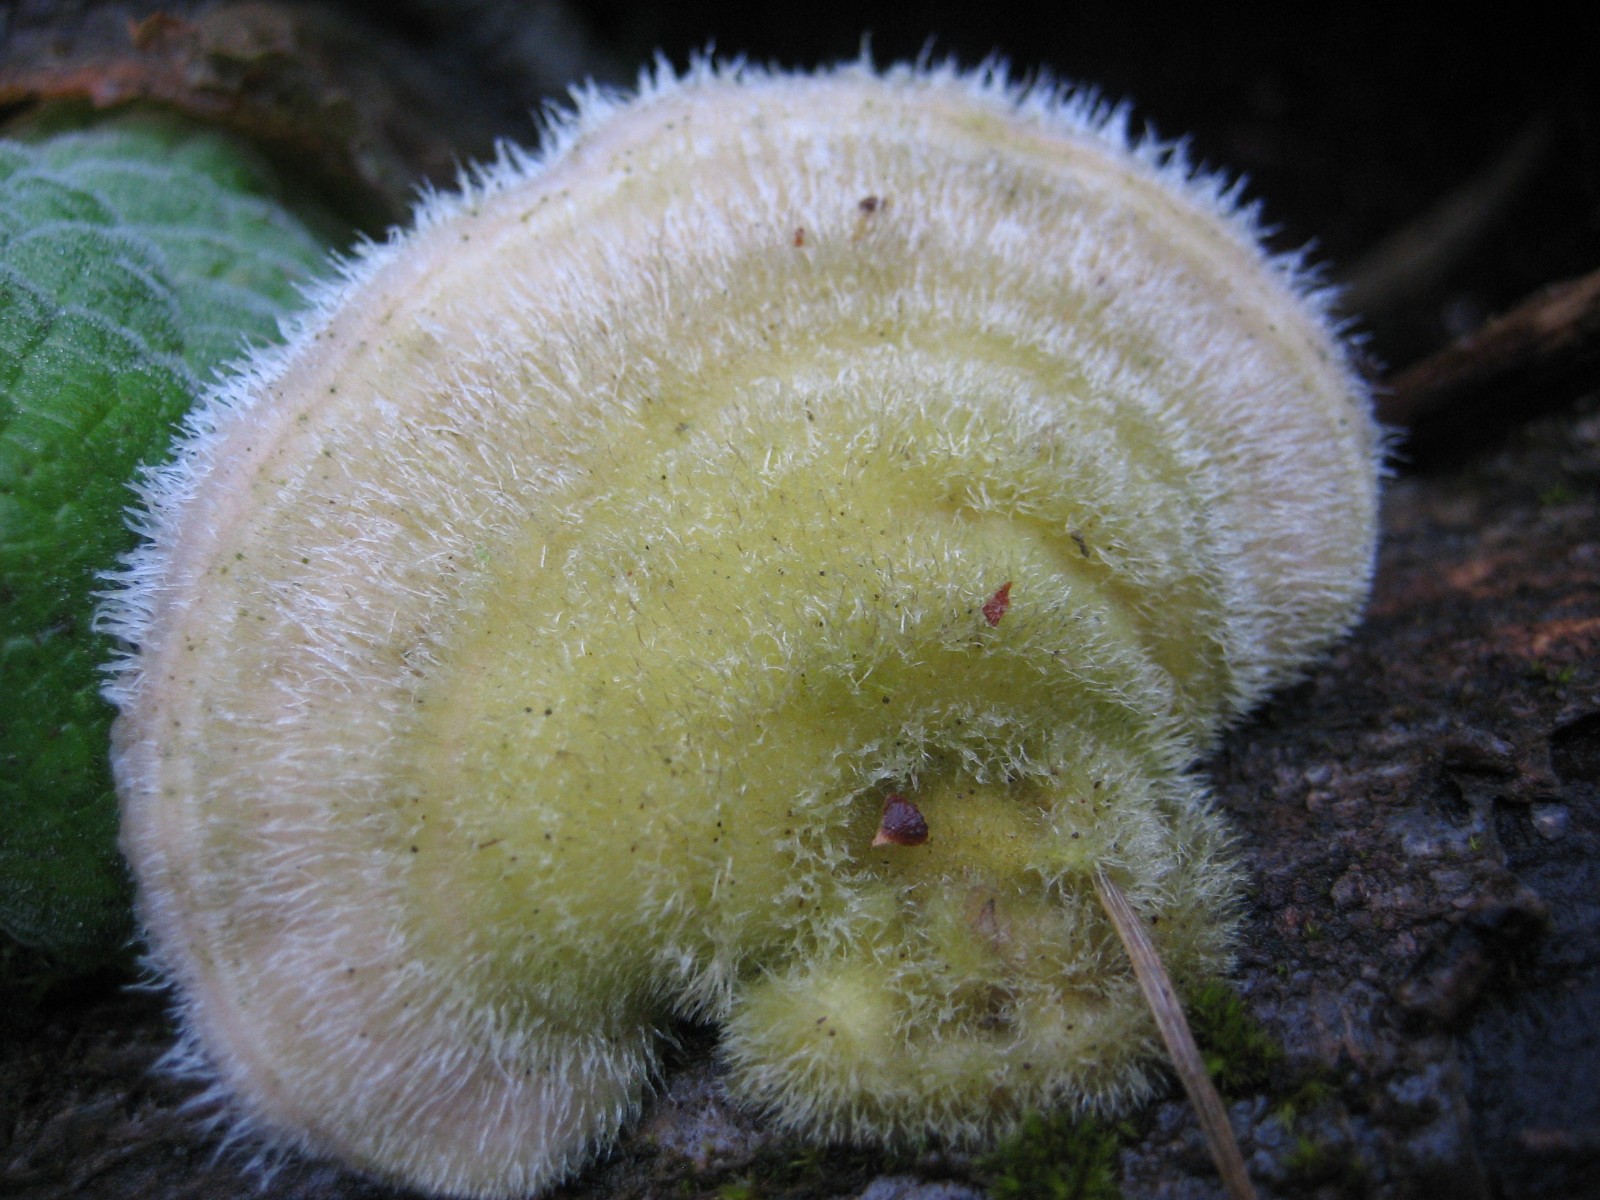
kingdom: Fungi
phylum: Basidiomycota
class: Agaricomycetes
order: Polyporales
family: Polyporaceae
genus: Trametes
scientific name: Trametes hirsuta
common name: håret læderporesvamp
